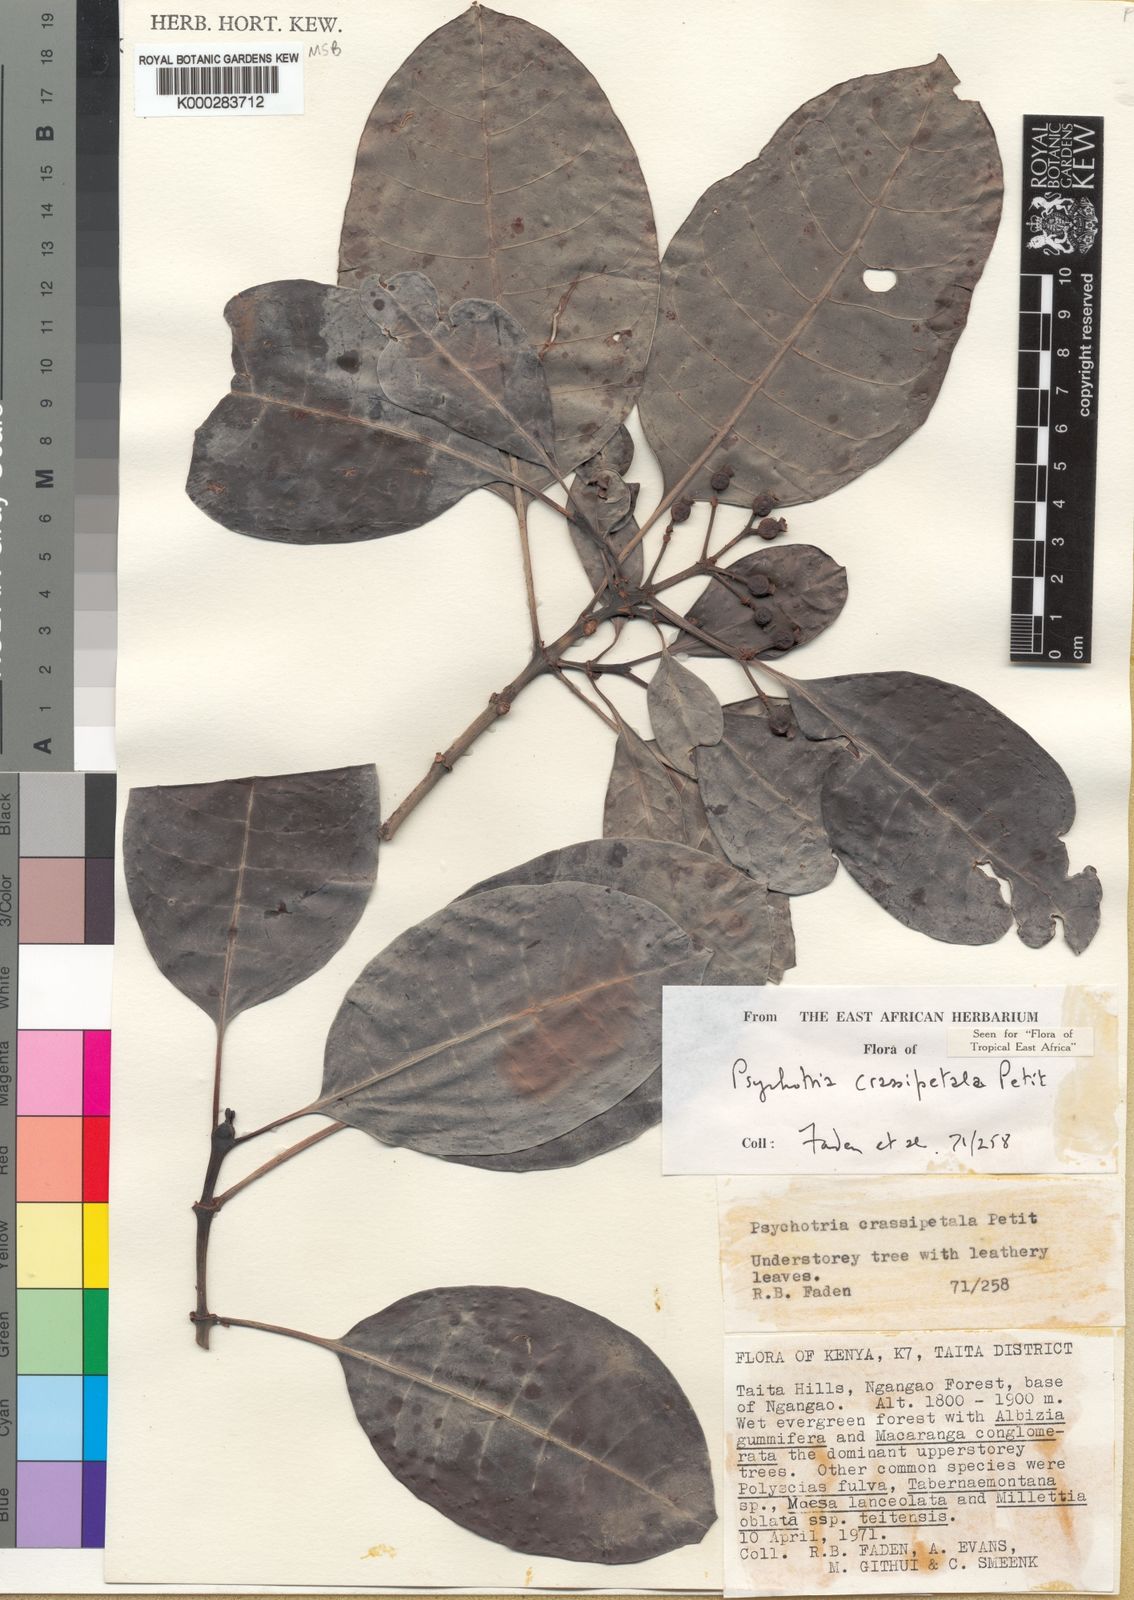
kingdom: Plantae
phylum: Tracheophyta
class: Magnoliopsida
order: Gentianales
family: Rubiaceae
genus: Psychotria
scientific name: Psychotria crassipetala
